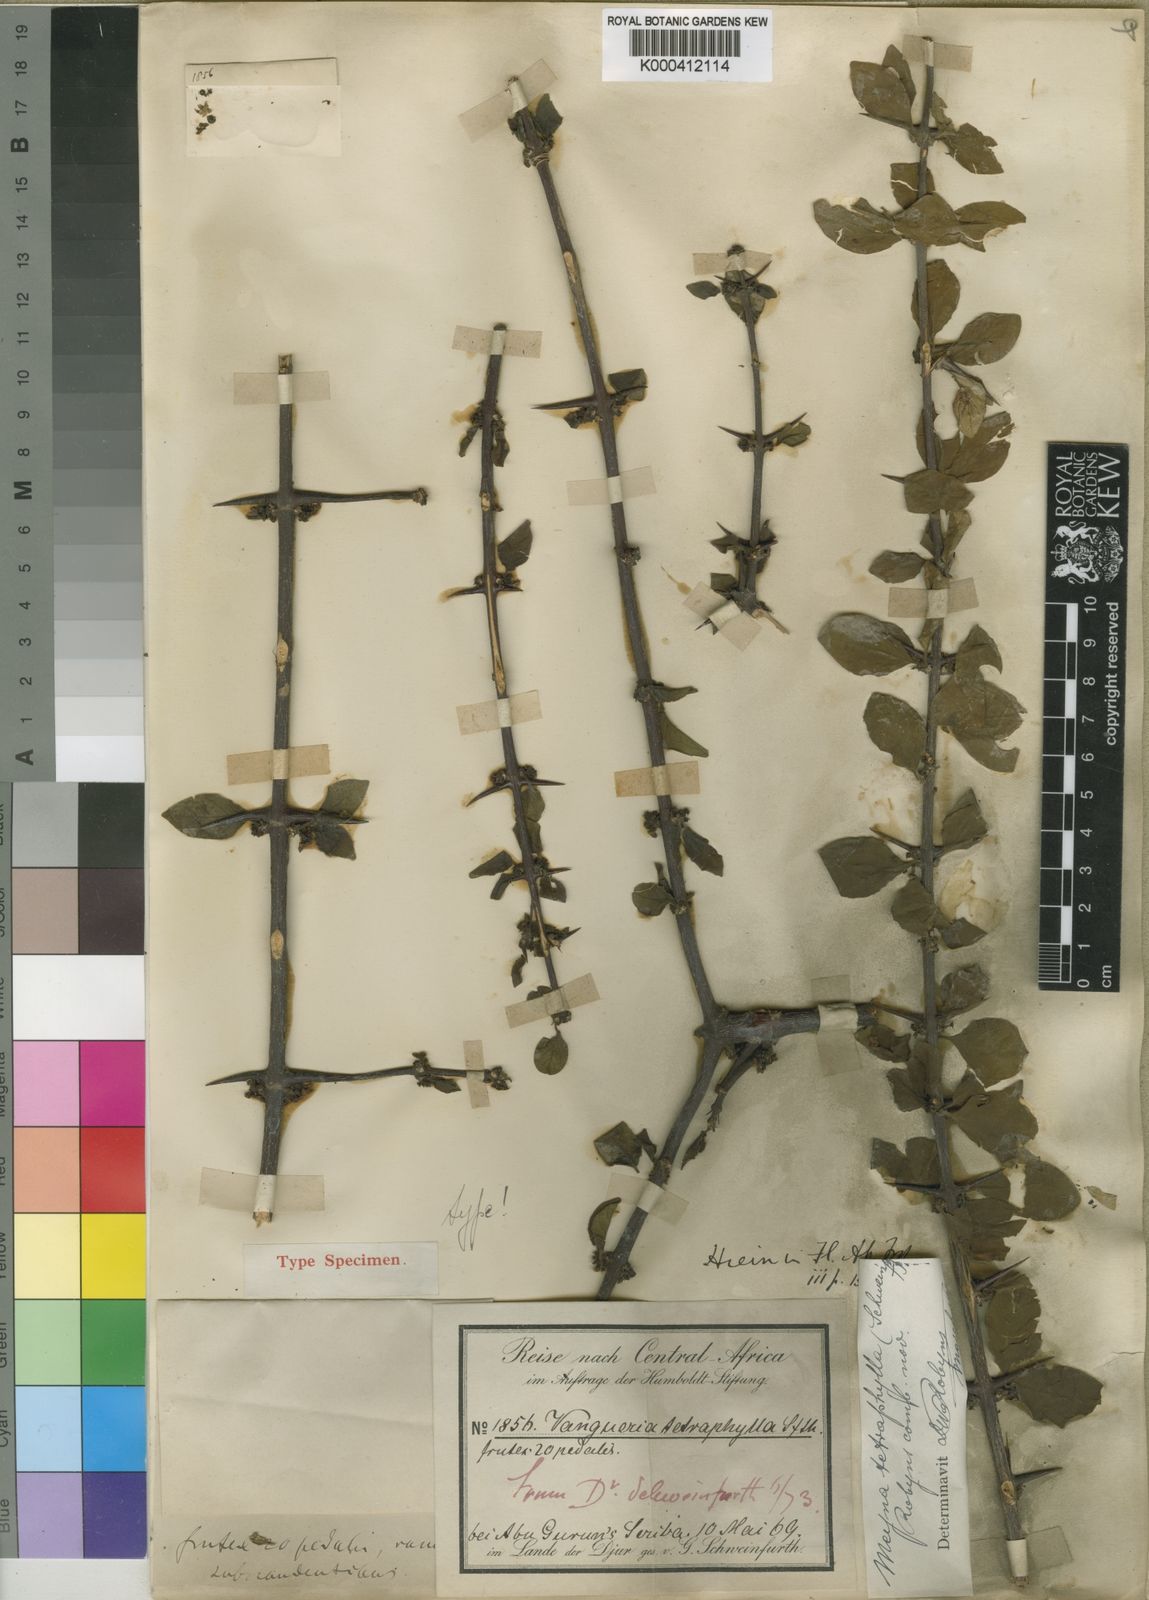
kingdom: Plantae
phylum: Tracheophyta
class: Magnoliopsida
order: Gentianales
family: Rubiaceae
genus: Meyna
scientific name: Meyna tetraphylla
